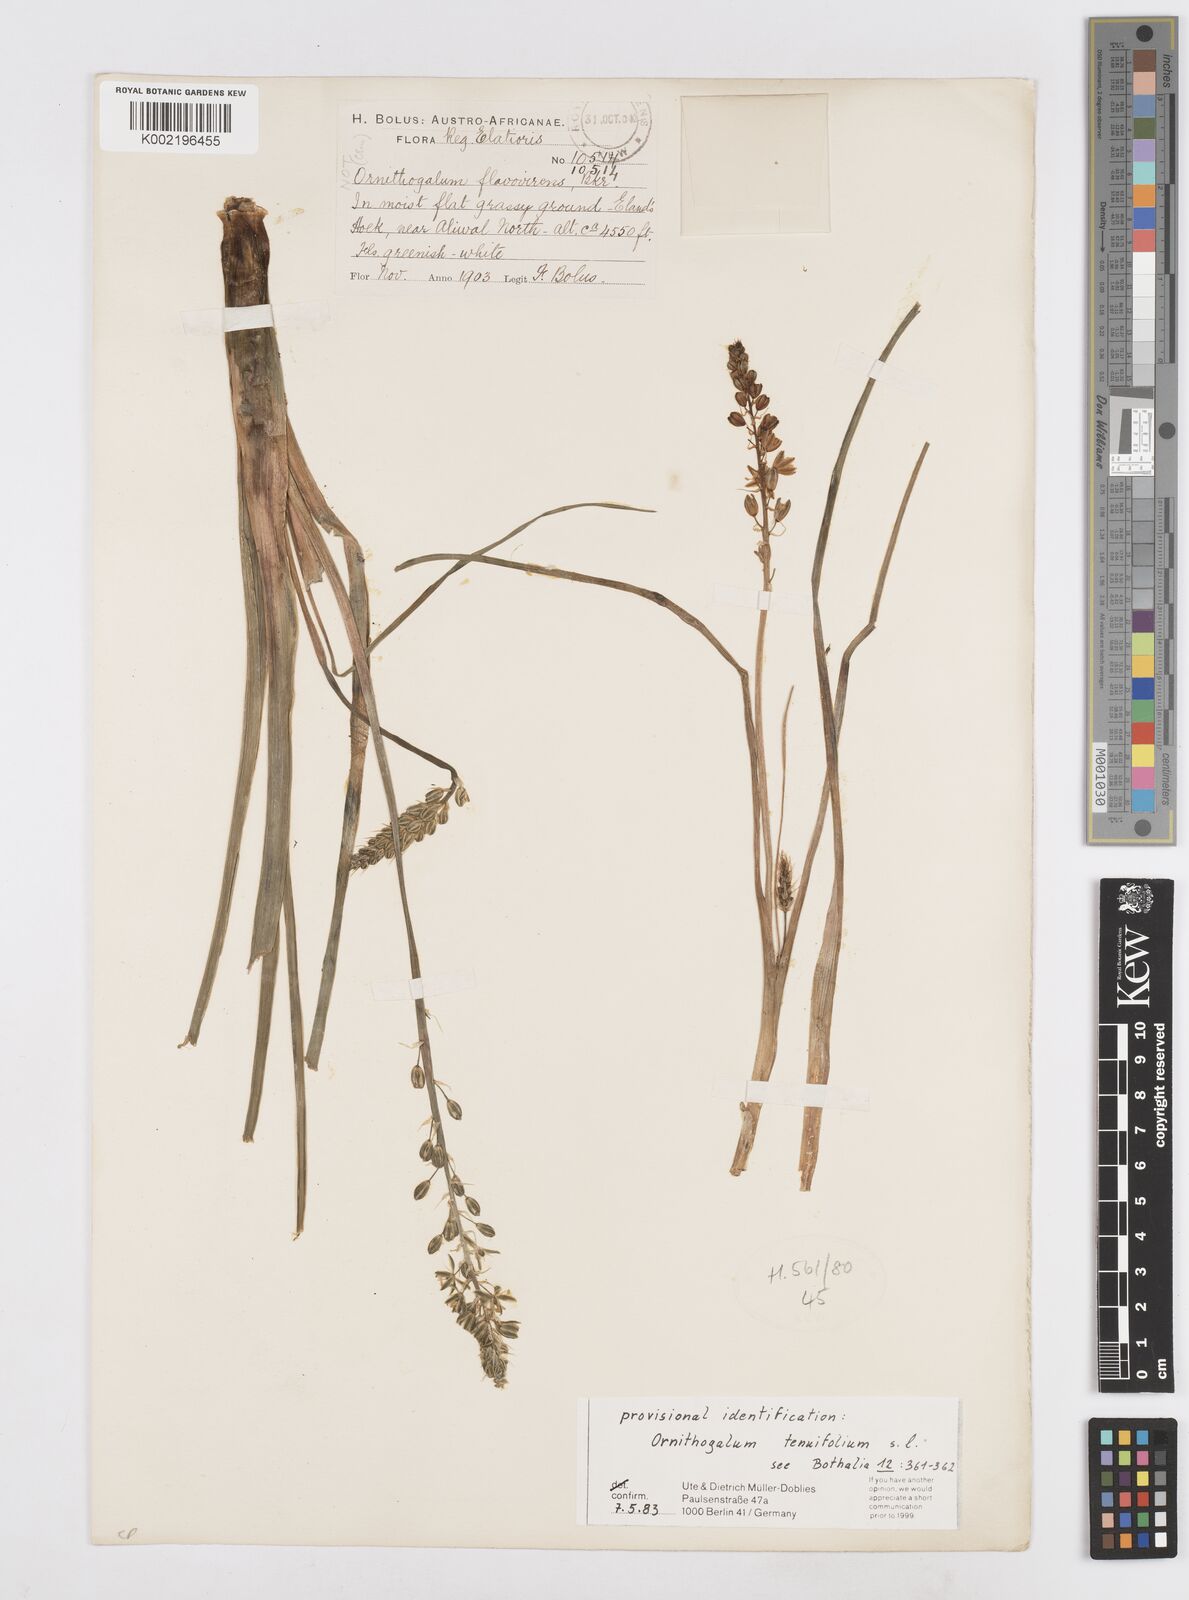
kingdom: Plantae
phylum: Tracheophyta
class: Liliopsida
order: Asparagales
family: Asparagaceae
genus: Albuca
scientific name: Albuca virens
